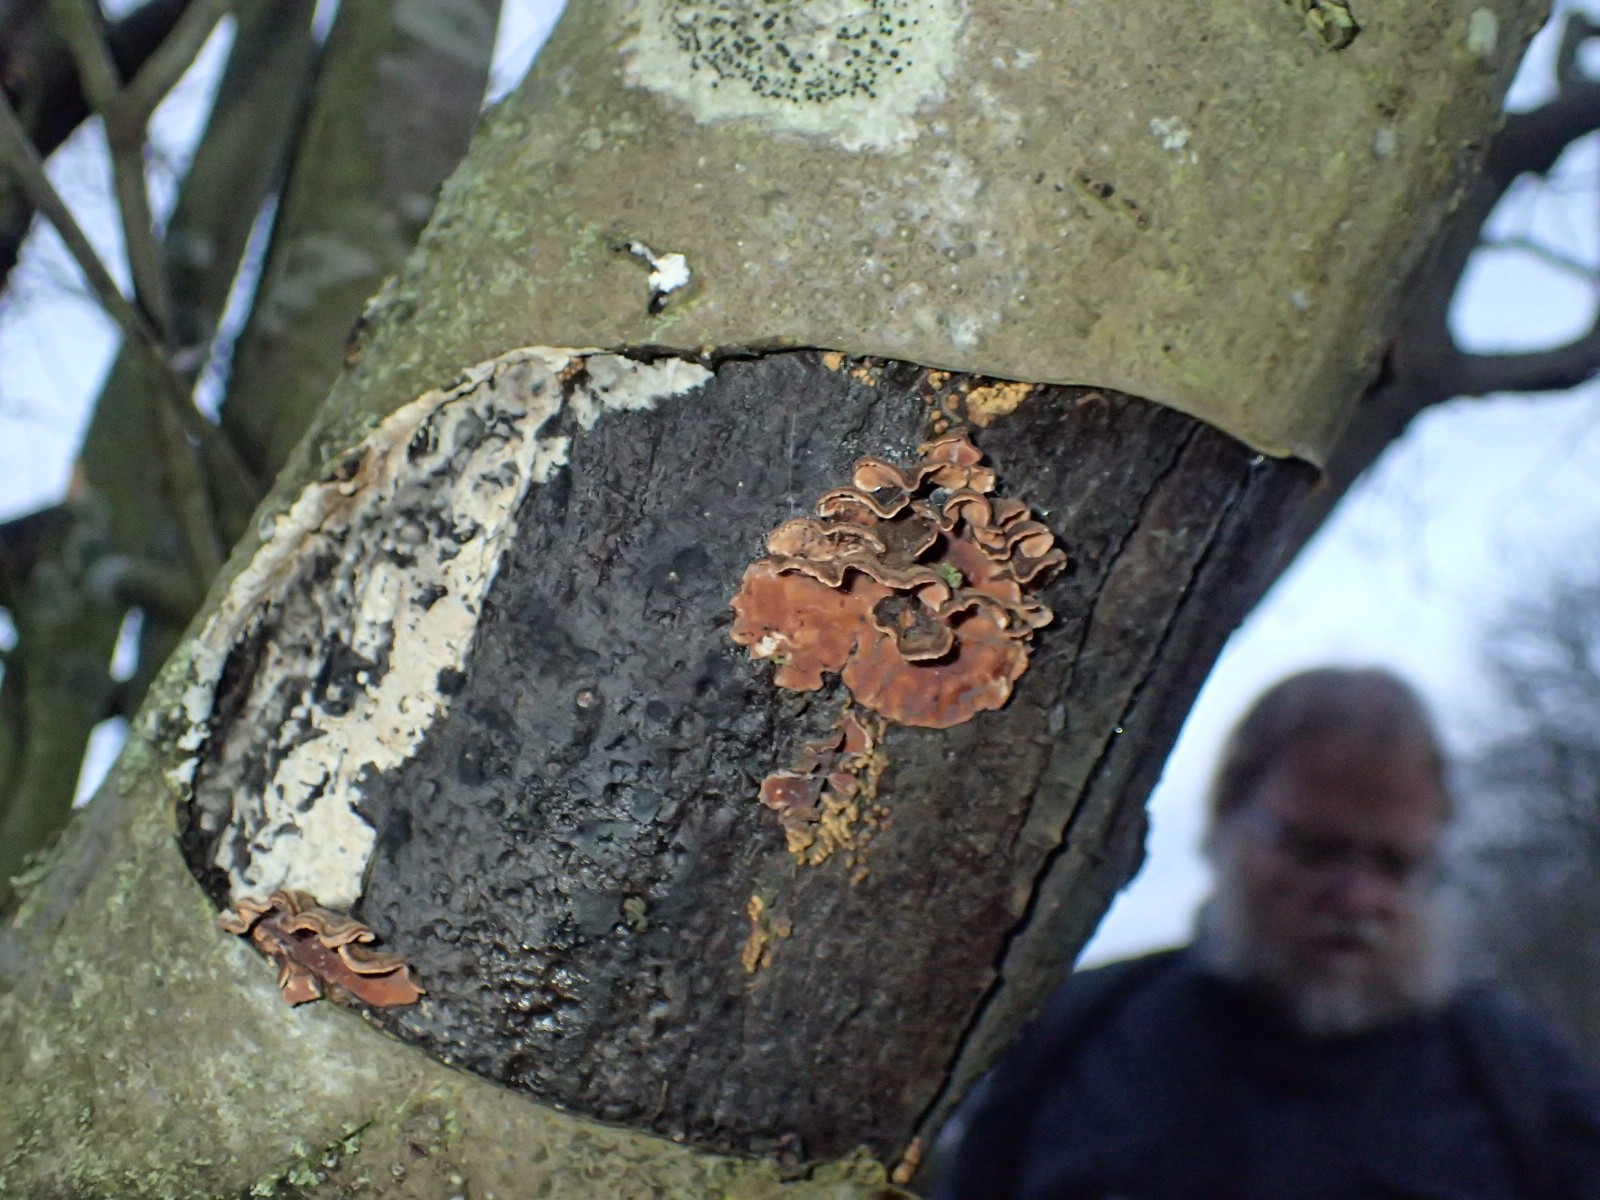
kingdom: Fungi
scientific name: Fungi
